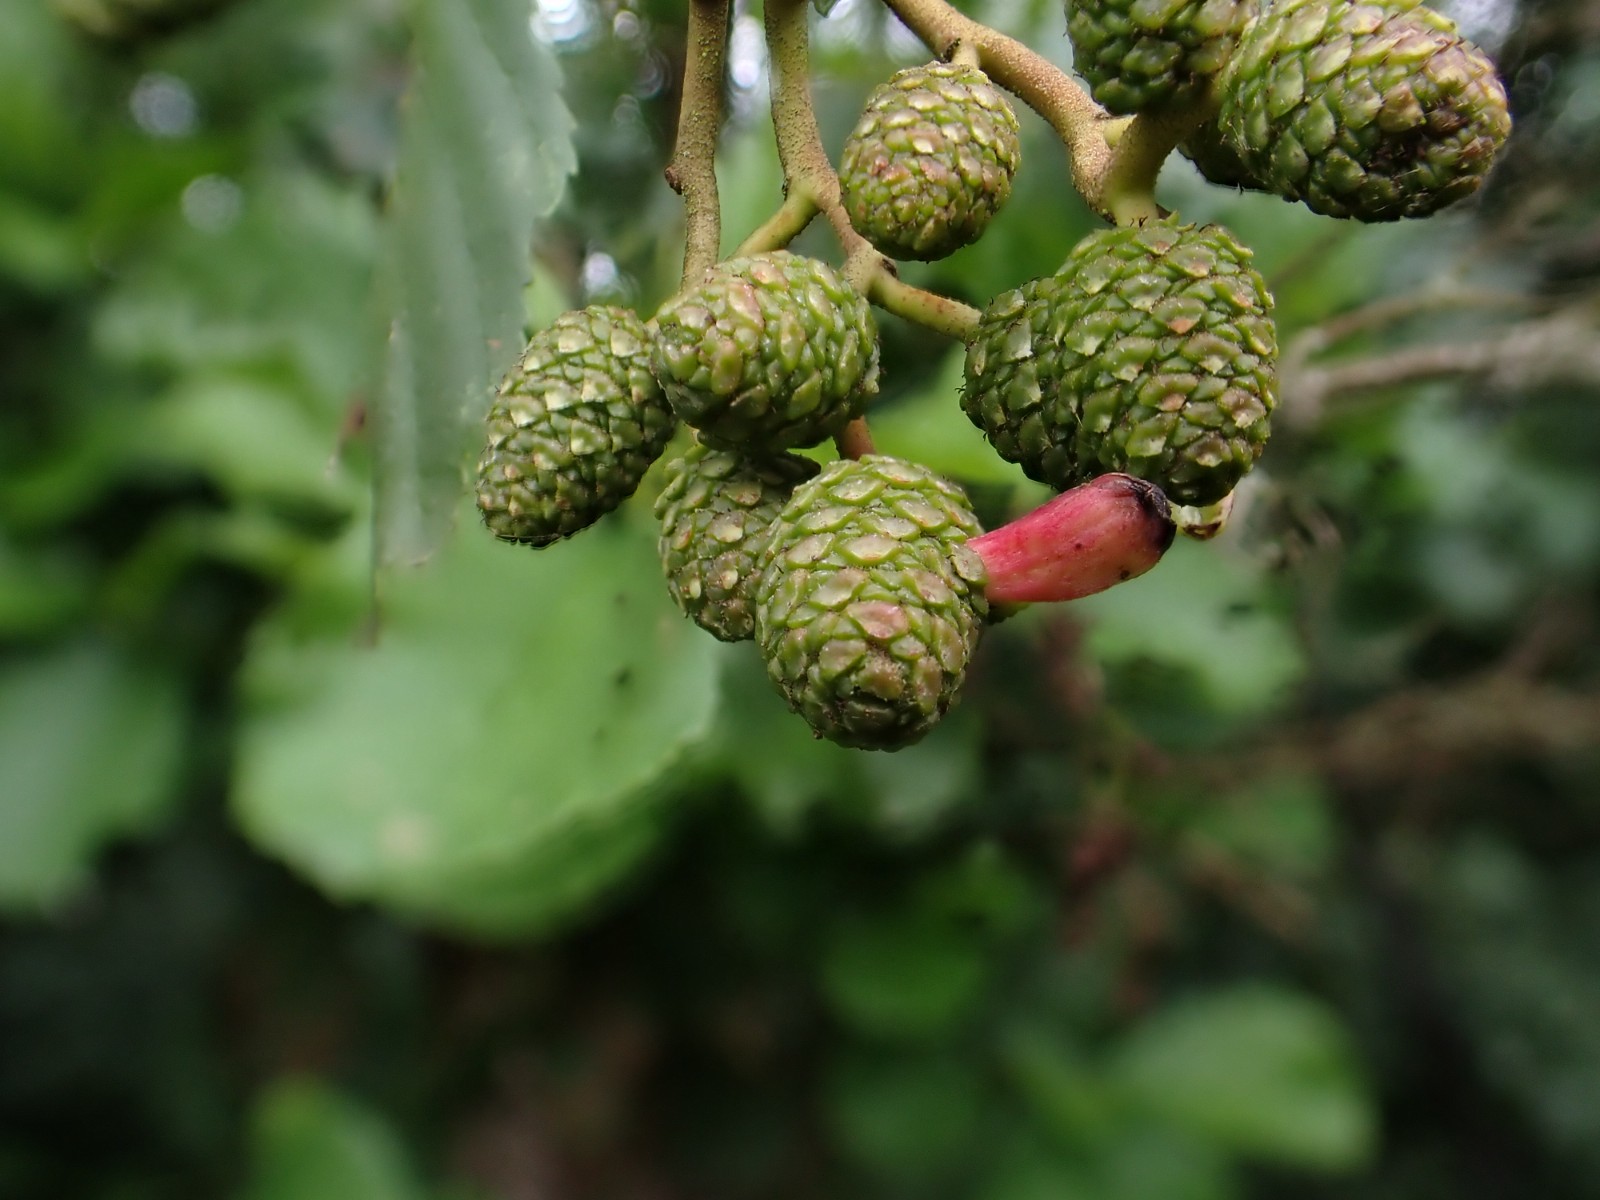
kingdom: Fungi
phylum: Ascomycota
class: Taphrinomycetes
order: Taphrinales
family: Taphrinaceae
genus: Taphrina
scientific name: Taphrina alni
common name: Alder tongue
